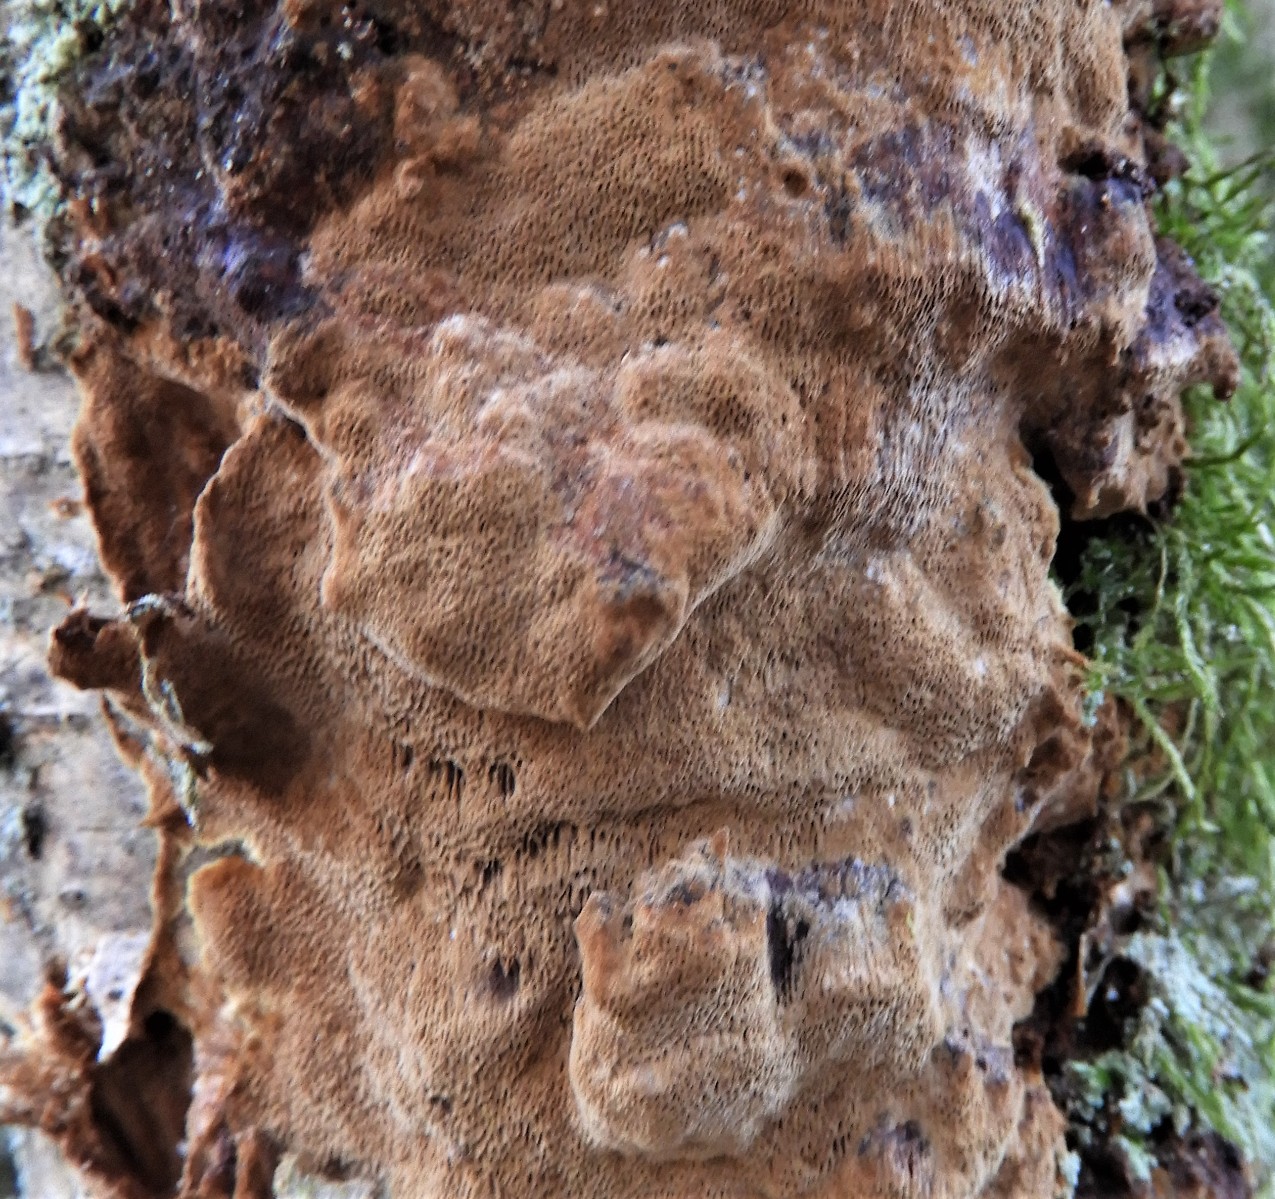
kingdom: Fungi
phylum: Basidiomycota
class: Agaricomycetes
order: Hymenochaetales
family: Hymenochaetaceae
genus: Fuscoporia
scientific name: Fuscoporia ferrea
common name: skorpe-ildporesvamp
